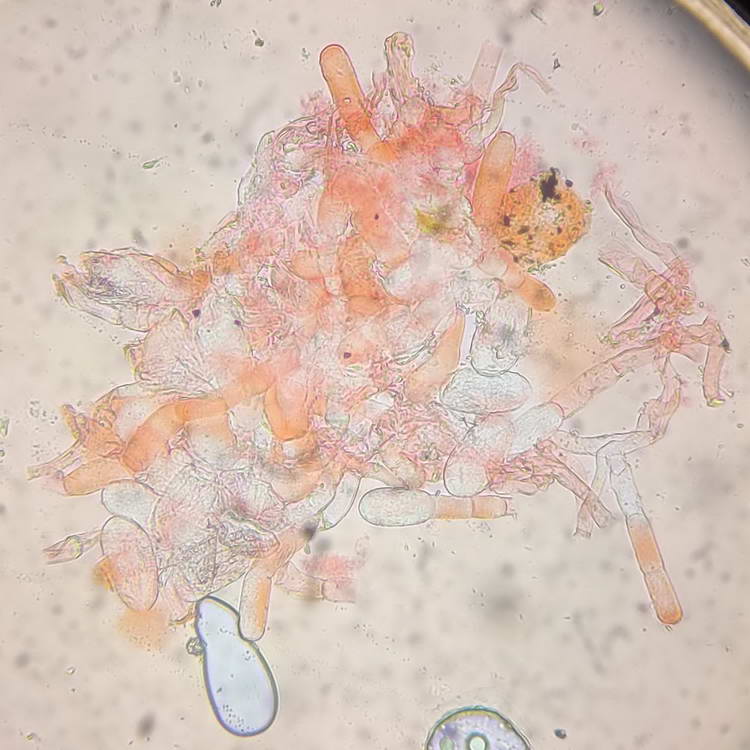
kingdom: Fungi
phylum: Ascomycota
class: Leotiomycetes
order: Helotiales
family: Erysiphaceae
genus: Erysiphe
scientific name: Erysiphe polygoni
